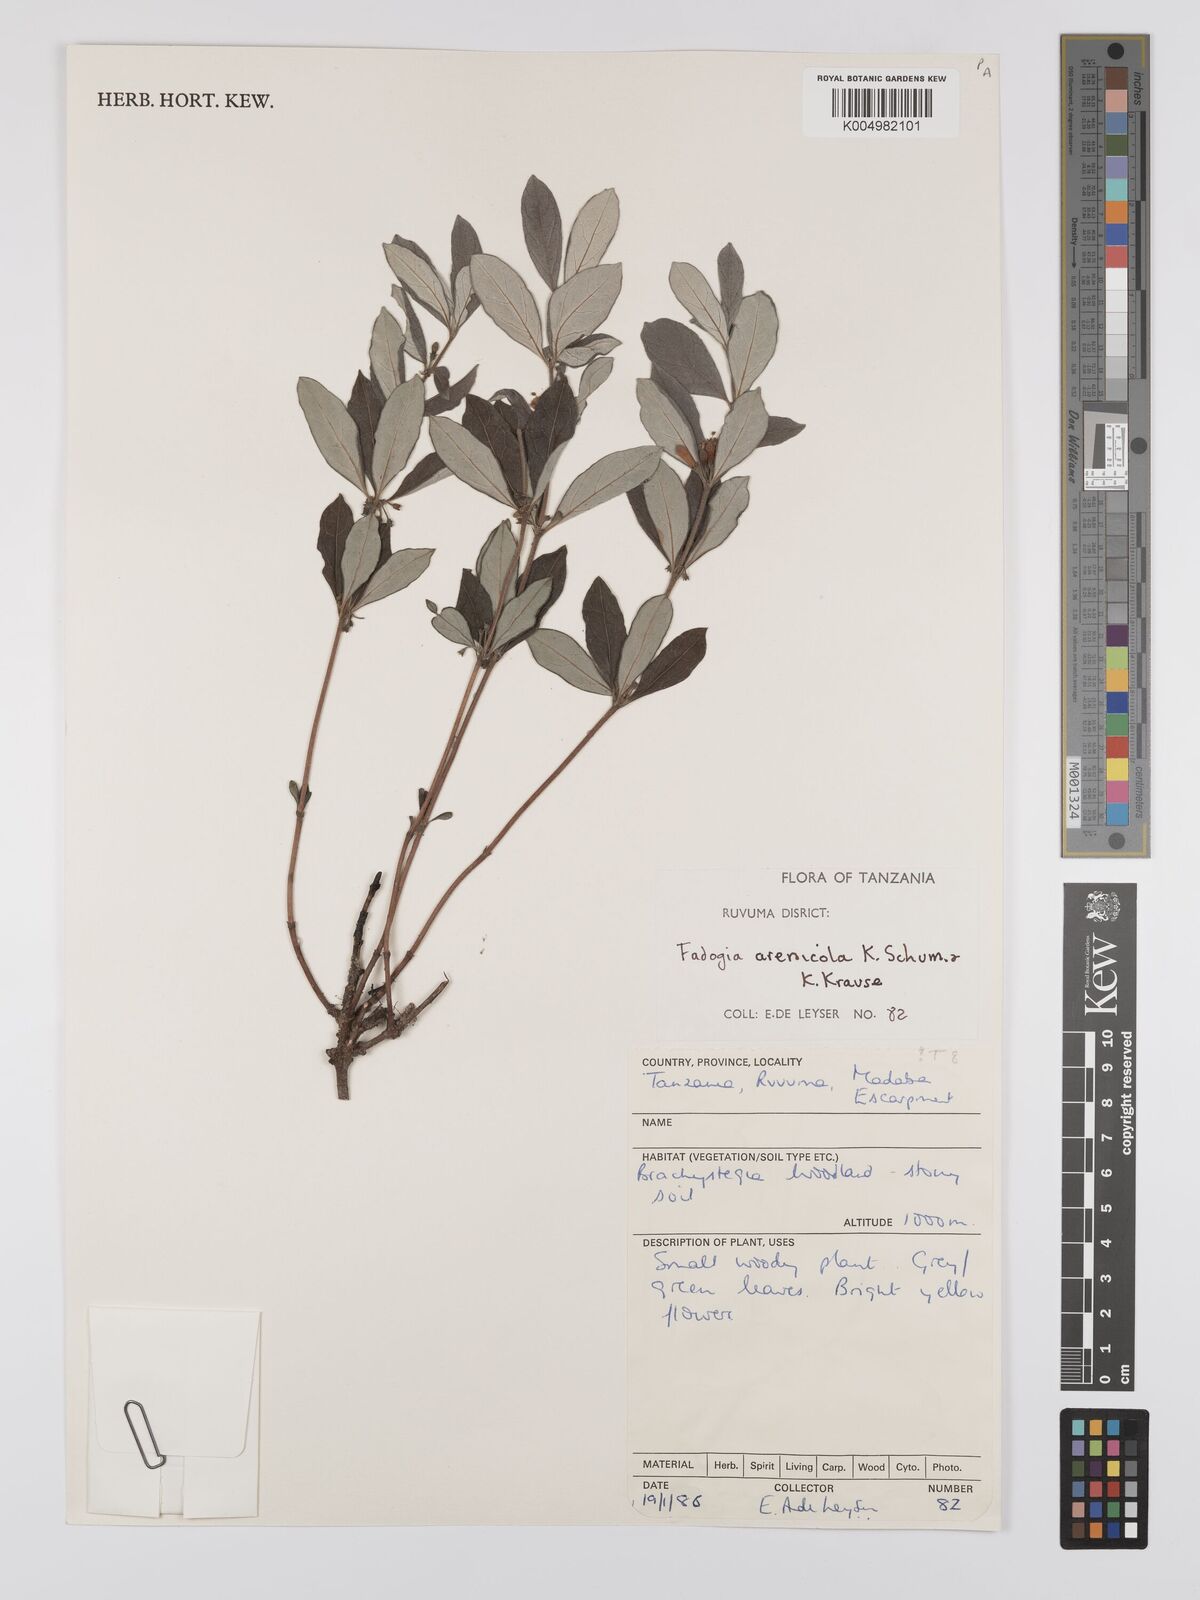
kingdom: Plantae
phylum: Tracheophyta
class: Magnoliopsida
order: Gentianales
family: Rubiaceae
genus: Fadogia
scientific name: Fadogia arenicola
